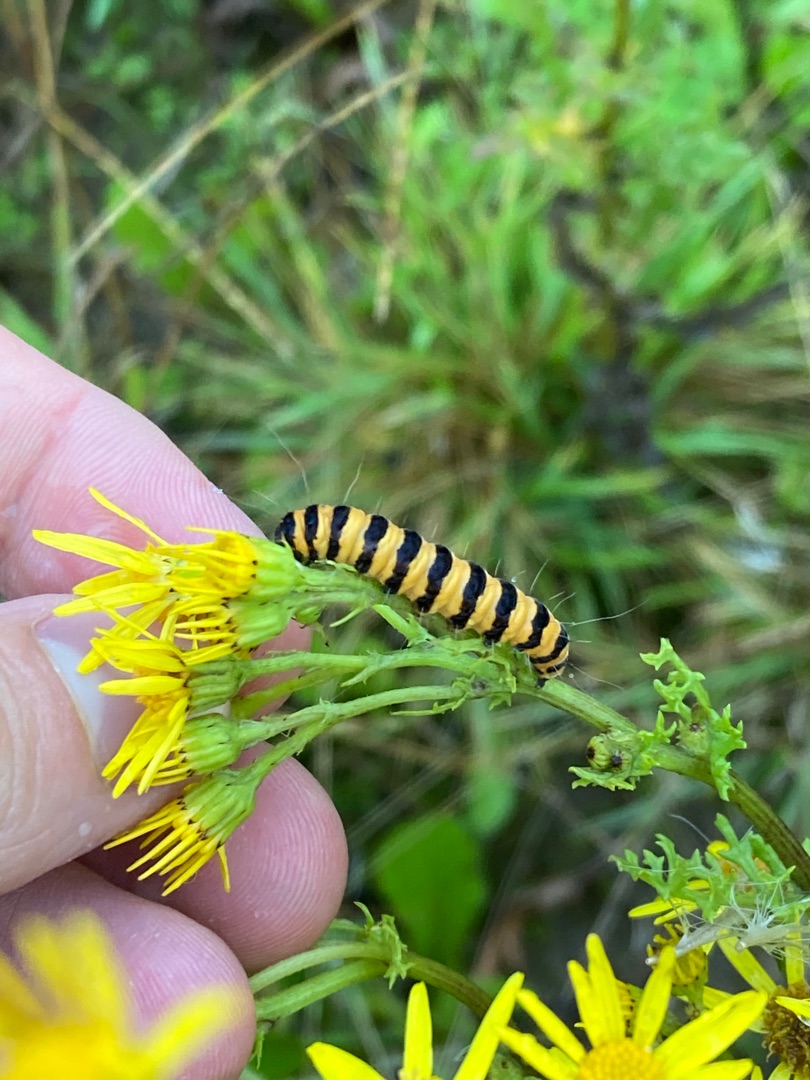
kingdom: Animalia
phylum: Arthropoda
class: Insecta
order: Lepidoptera
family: Erebidae
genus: Tyria
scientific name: Tyria jacobaeae
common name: Blodplet
